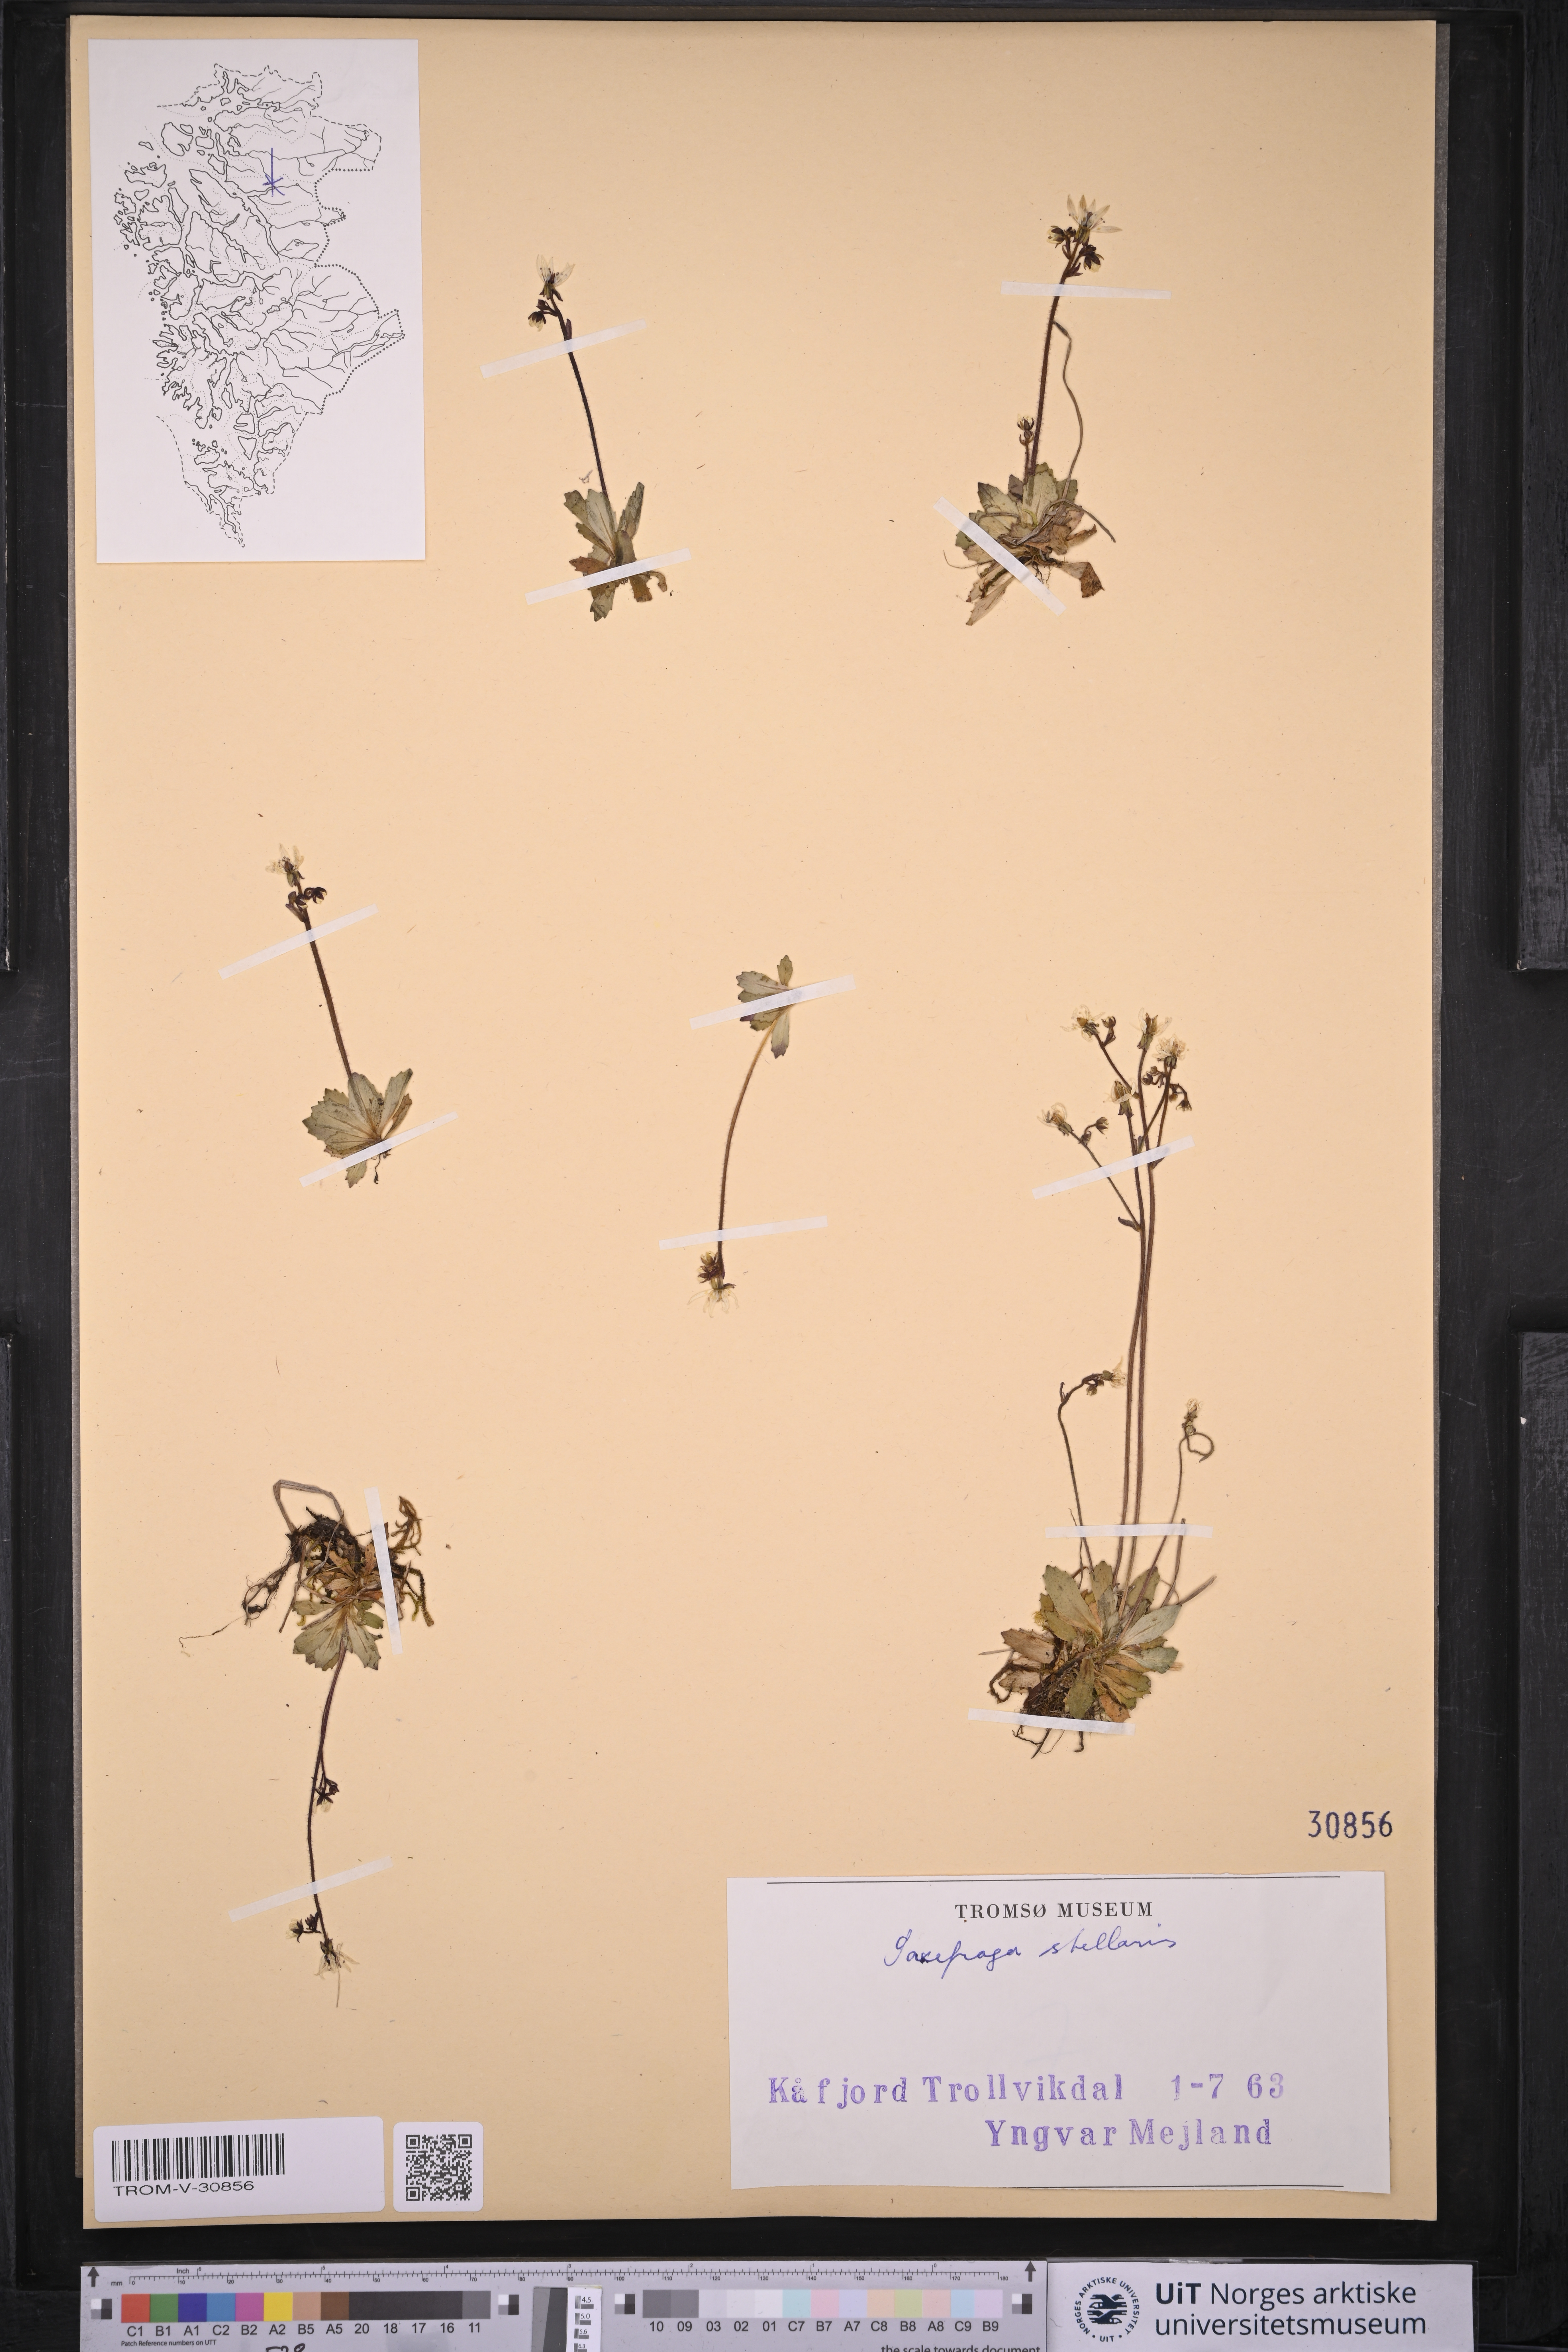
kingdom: Plantae
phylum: Tracheophyta
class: Magnoliopsida
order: Saxifragales
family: Saxifragaceae
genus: Micranthes
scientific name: Micranthes stellaris
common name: Starry saxifrage
